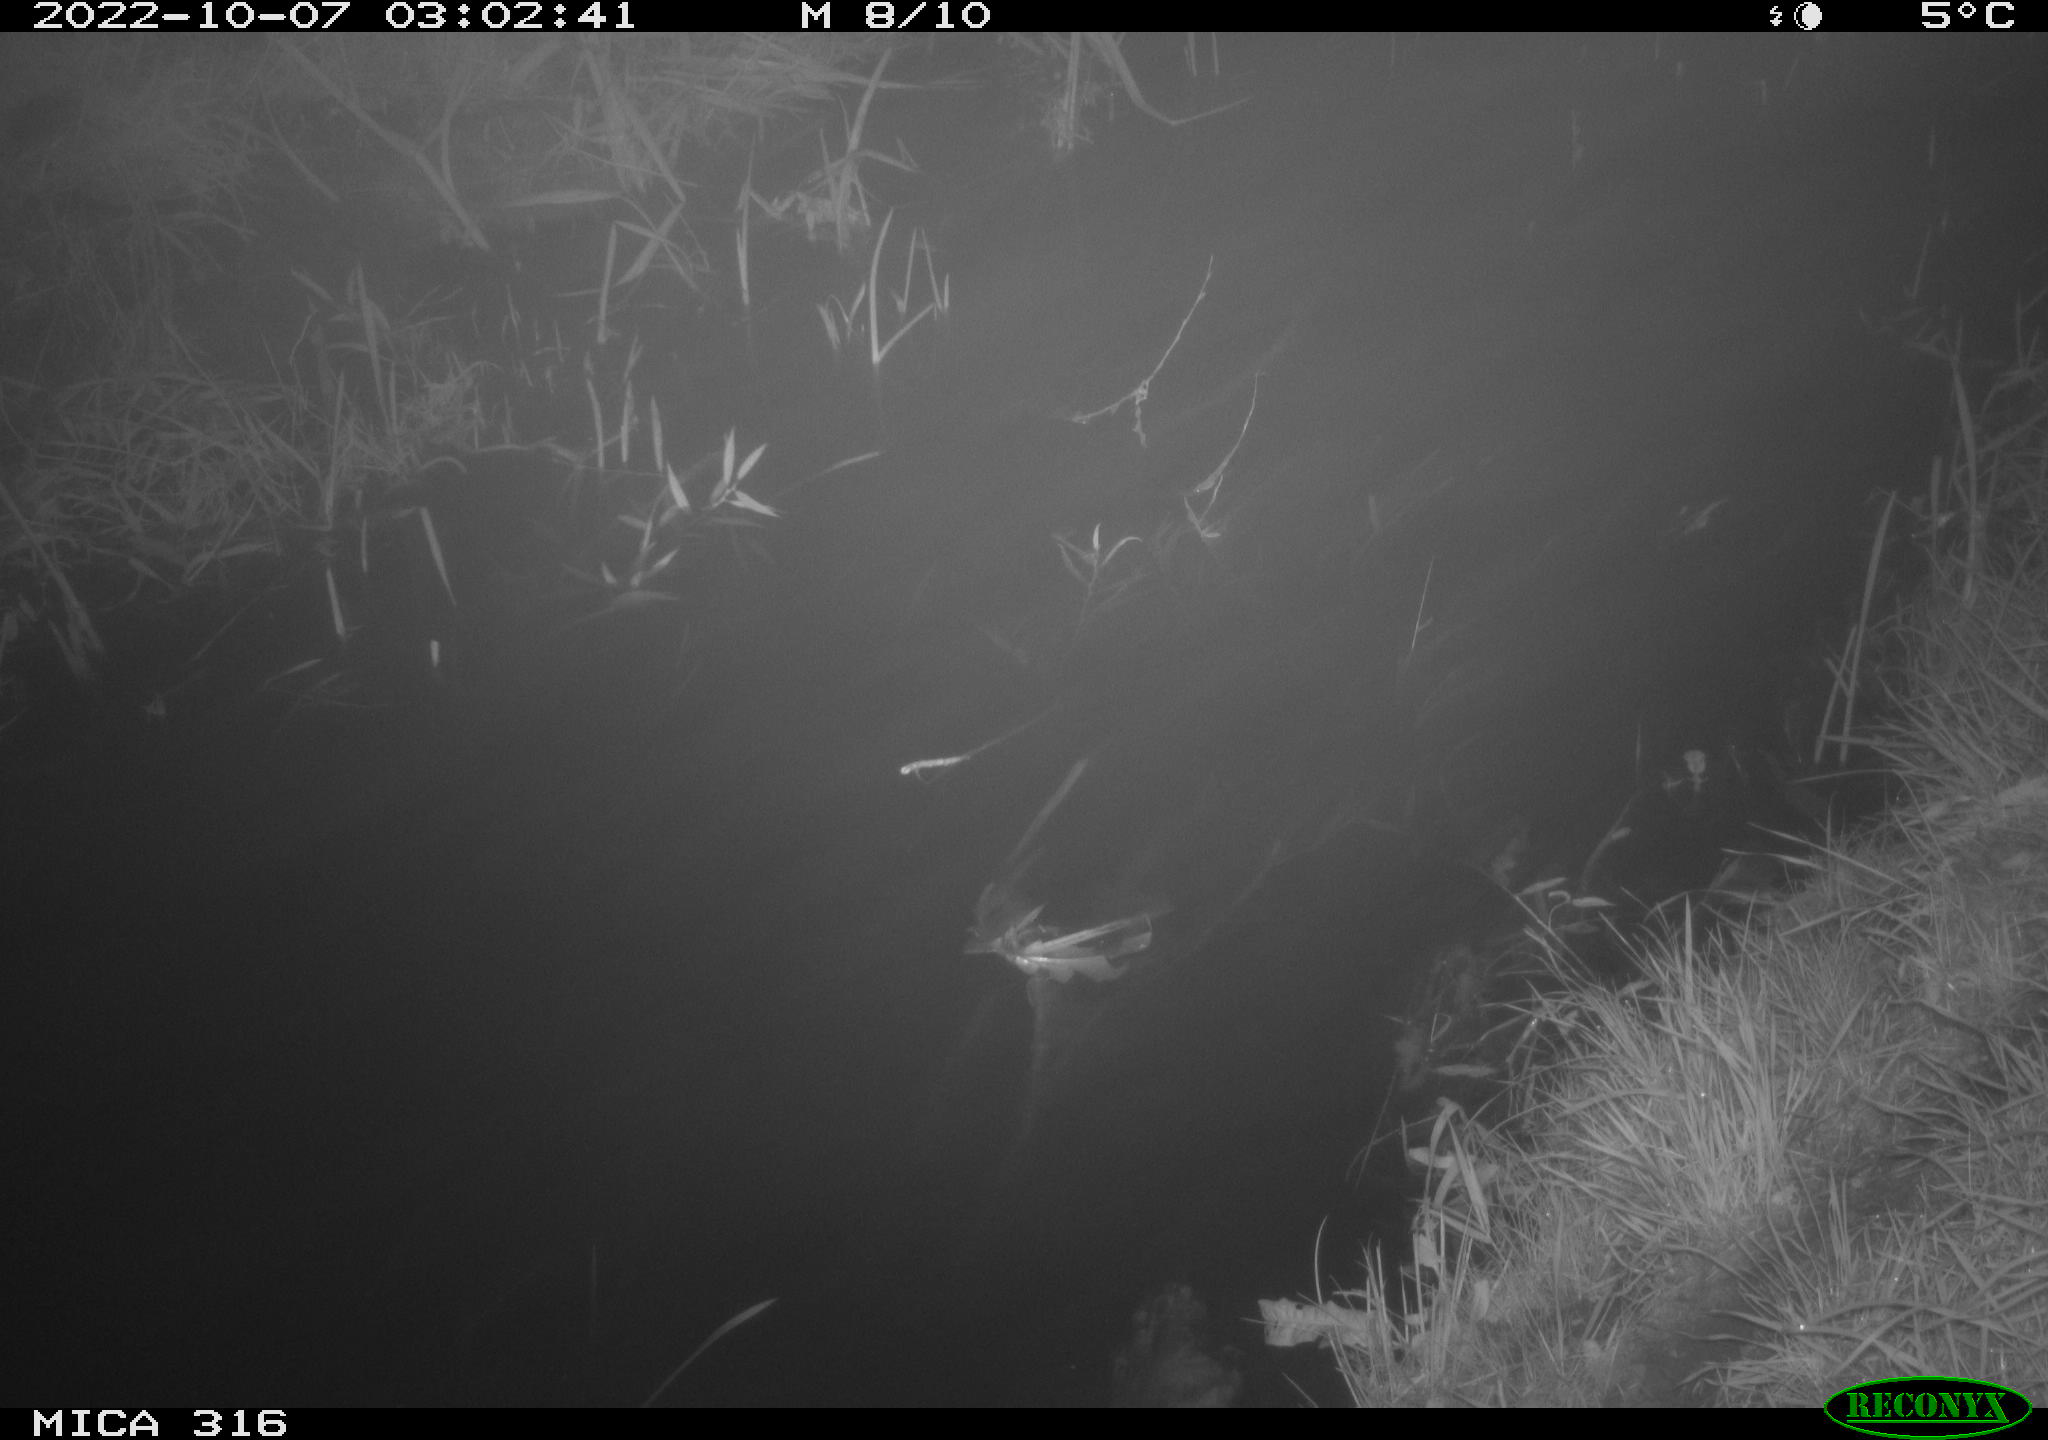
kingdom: Animalia
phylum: Chordata
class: Mammalia
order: Carnivora
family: Canidae
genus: Vulpes
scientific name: Vulpes vulpes
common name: Red fox
